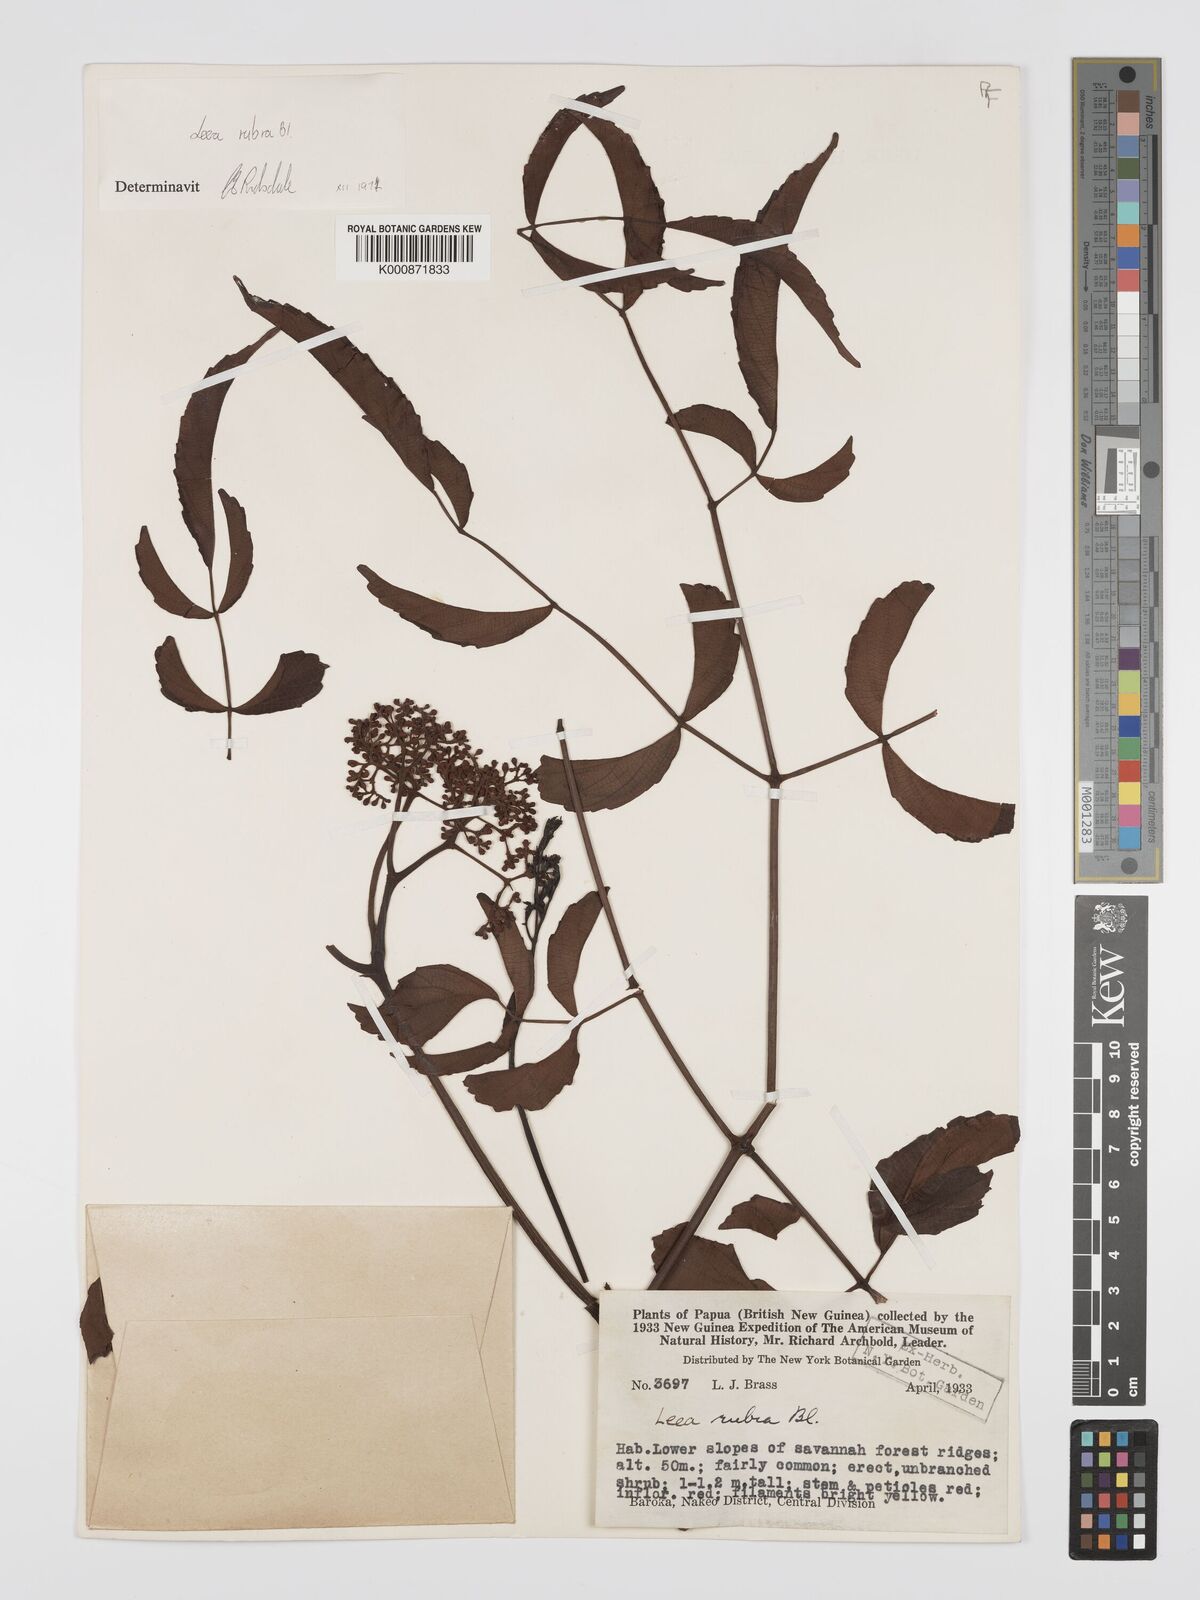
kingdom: Plantae
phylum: Tracheophyta
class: Magnoliopsida
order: Vitales
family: Vitaceae
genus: Leea
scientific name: Leea
